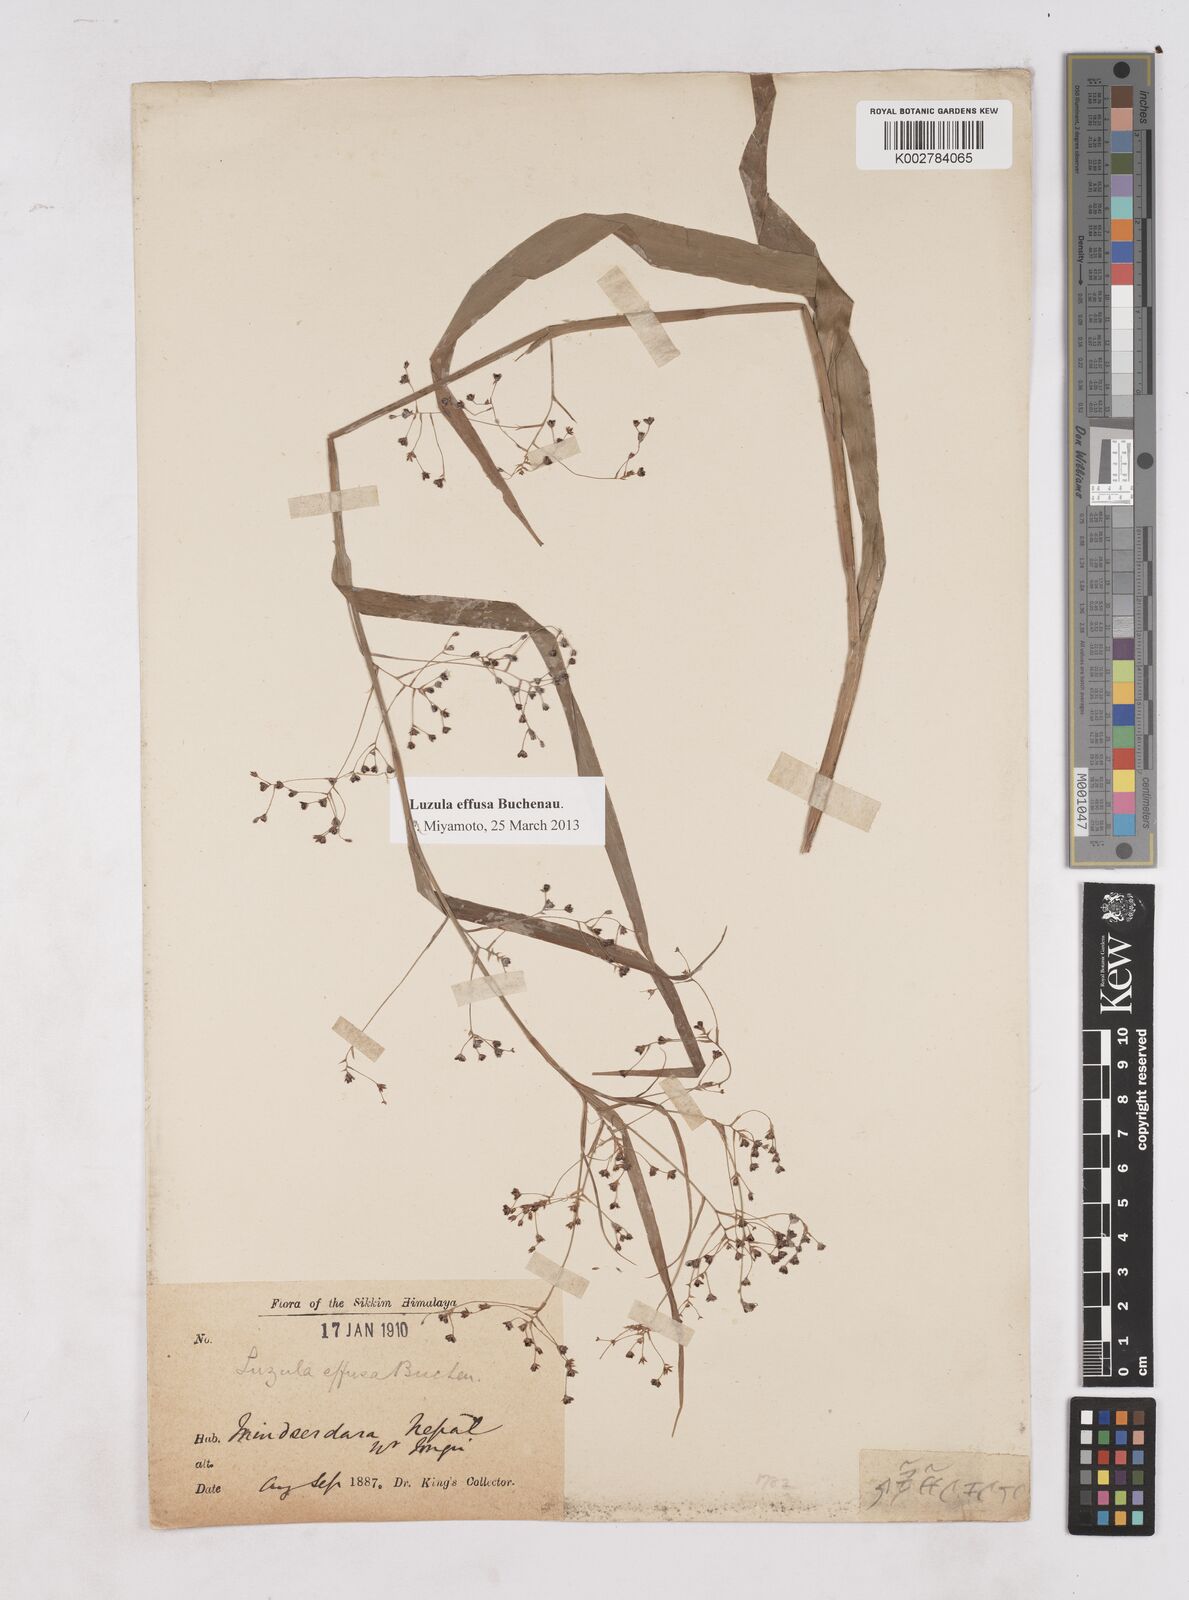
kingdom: Plantae
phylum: Tracheophyta
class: Liliopsida
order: Poales
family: Juncaceae
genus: Luzula
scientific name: Luzula effusa
